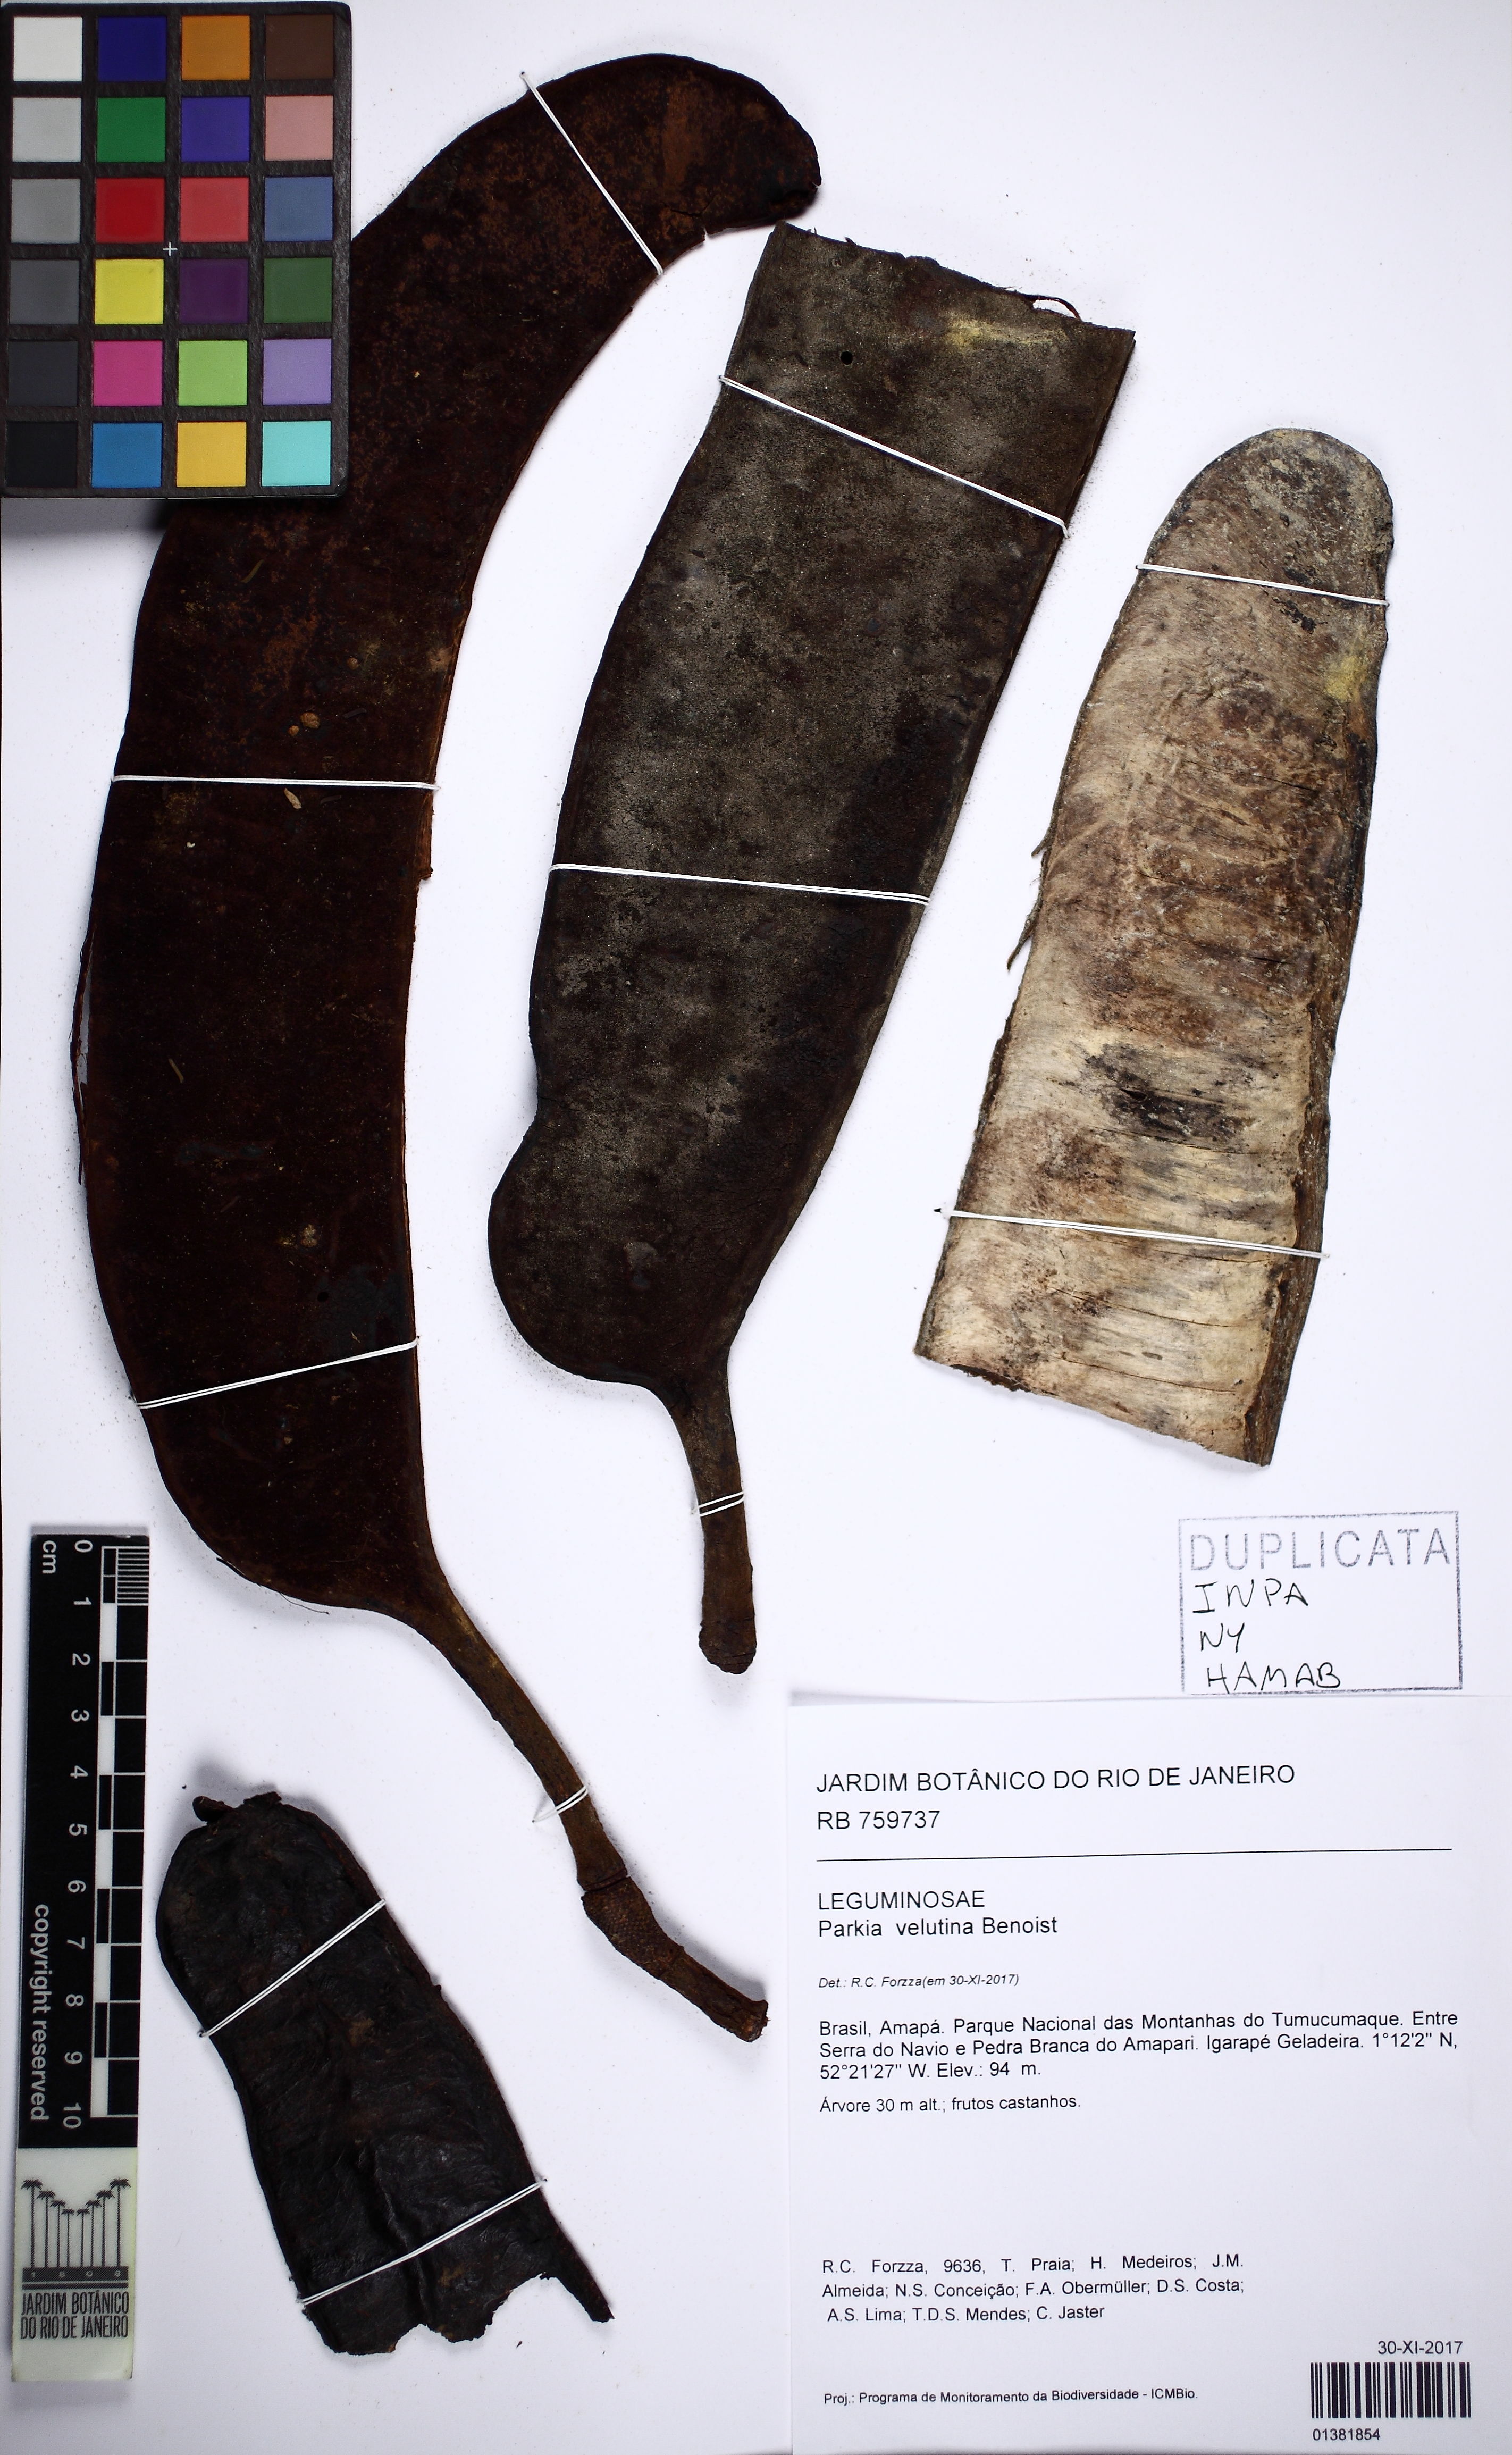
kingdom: Plantae
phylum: Tracheophyta
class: Magnoliopsida
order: Fabales
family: Fabaceae
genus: Parkia
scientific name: Parkia velutina
